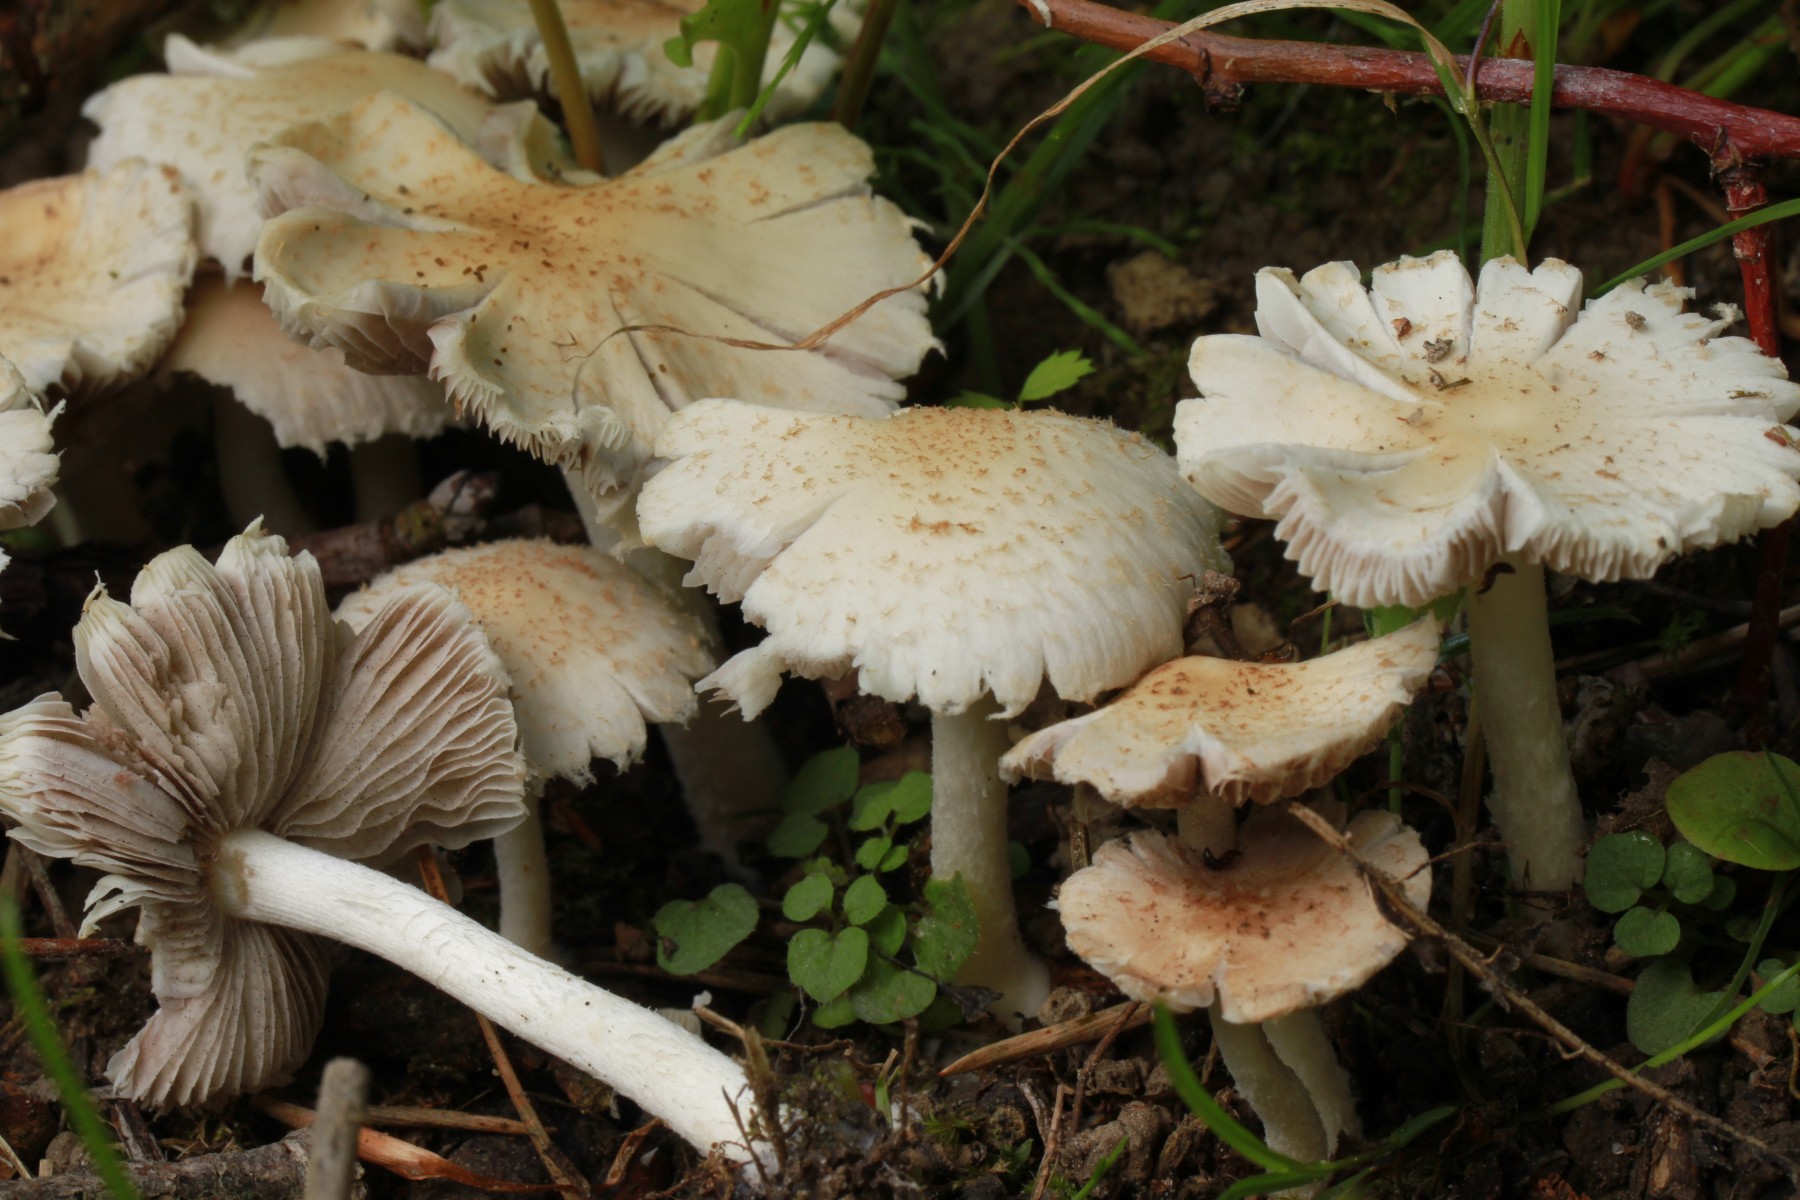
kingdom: Fungi
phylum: Basidiomycota
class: Agaricomycetes
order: Agaricales
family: Psathyrellaceae
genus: Candolleomyces
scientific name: Candolleomyces candolleanus
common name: Candolles mørkhat
